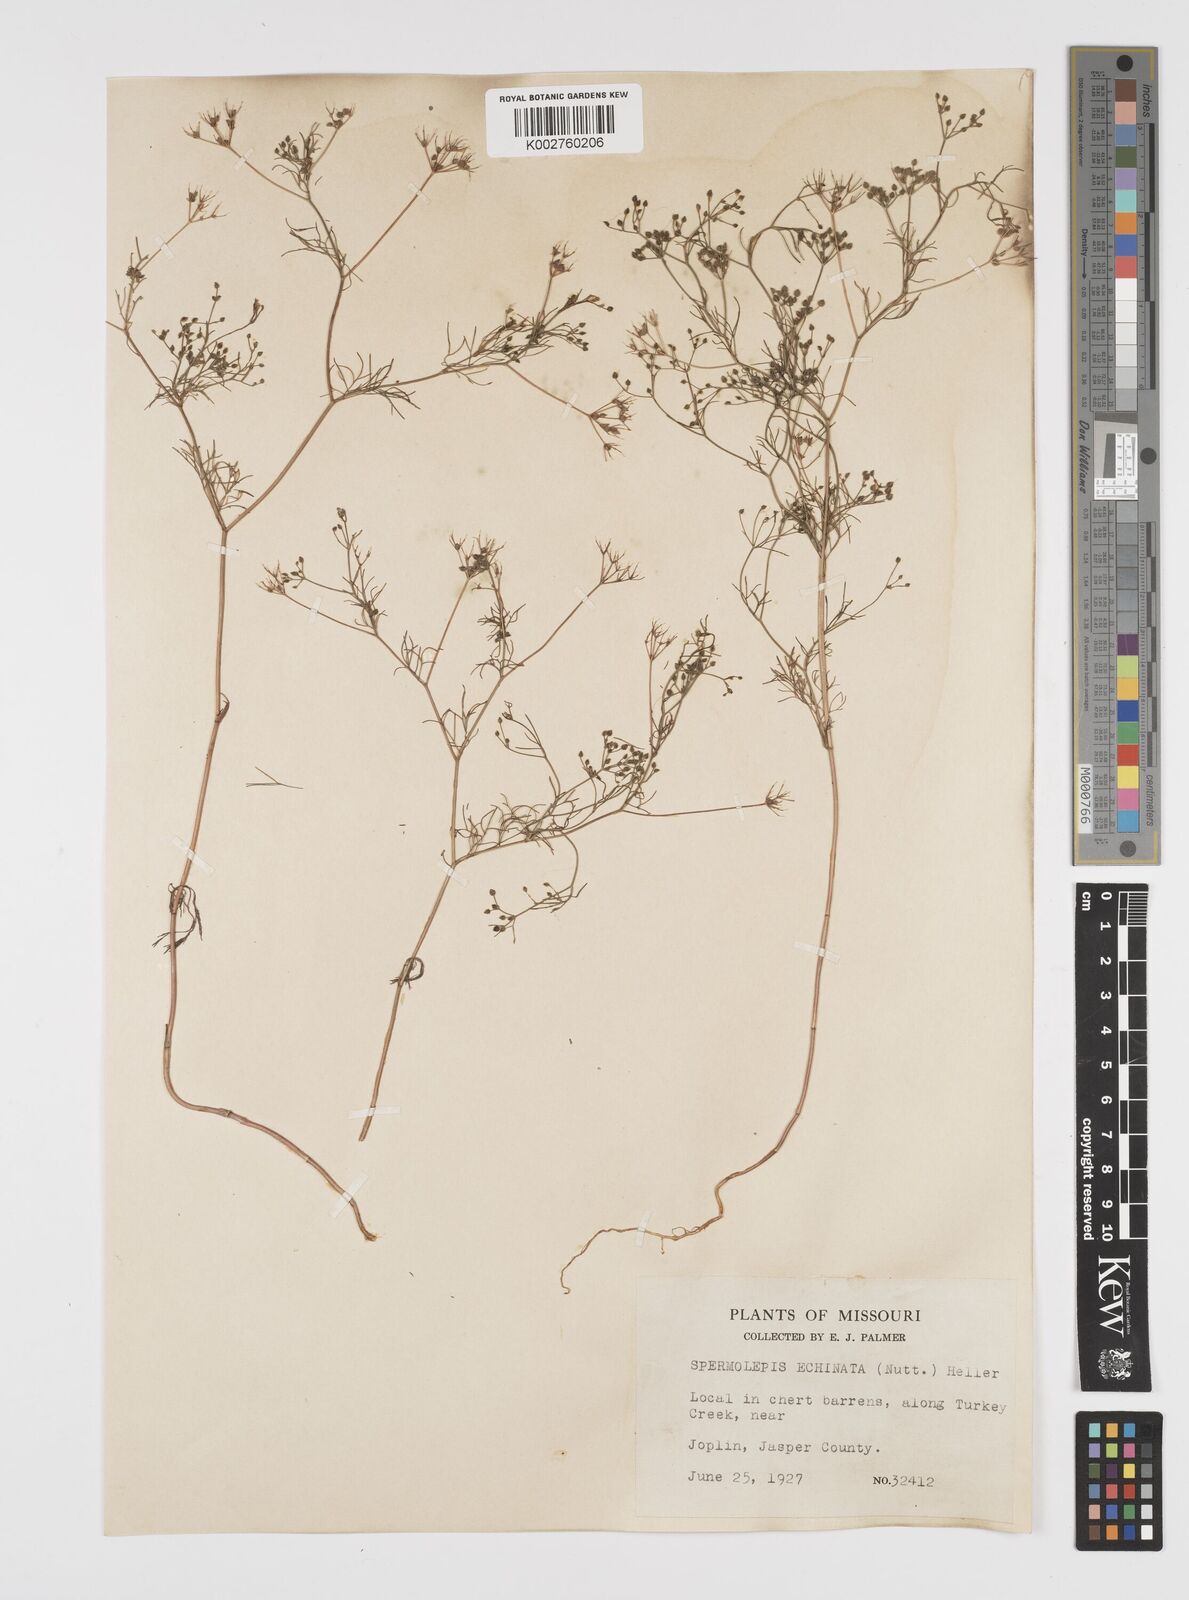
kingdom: Plantae
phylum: Tracheophyta
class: Magnoliopsida
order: Apiales
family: Apiaceae
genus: Spermolepis
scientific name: Spermolepis echinata
